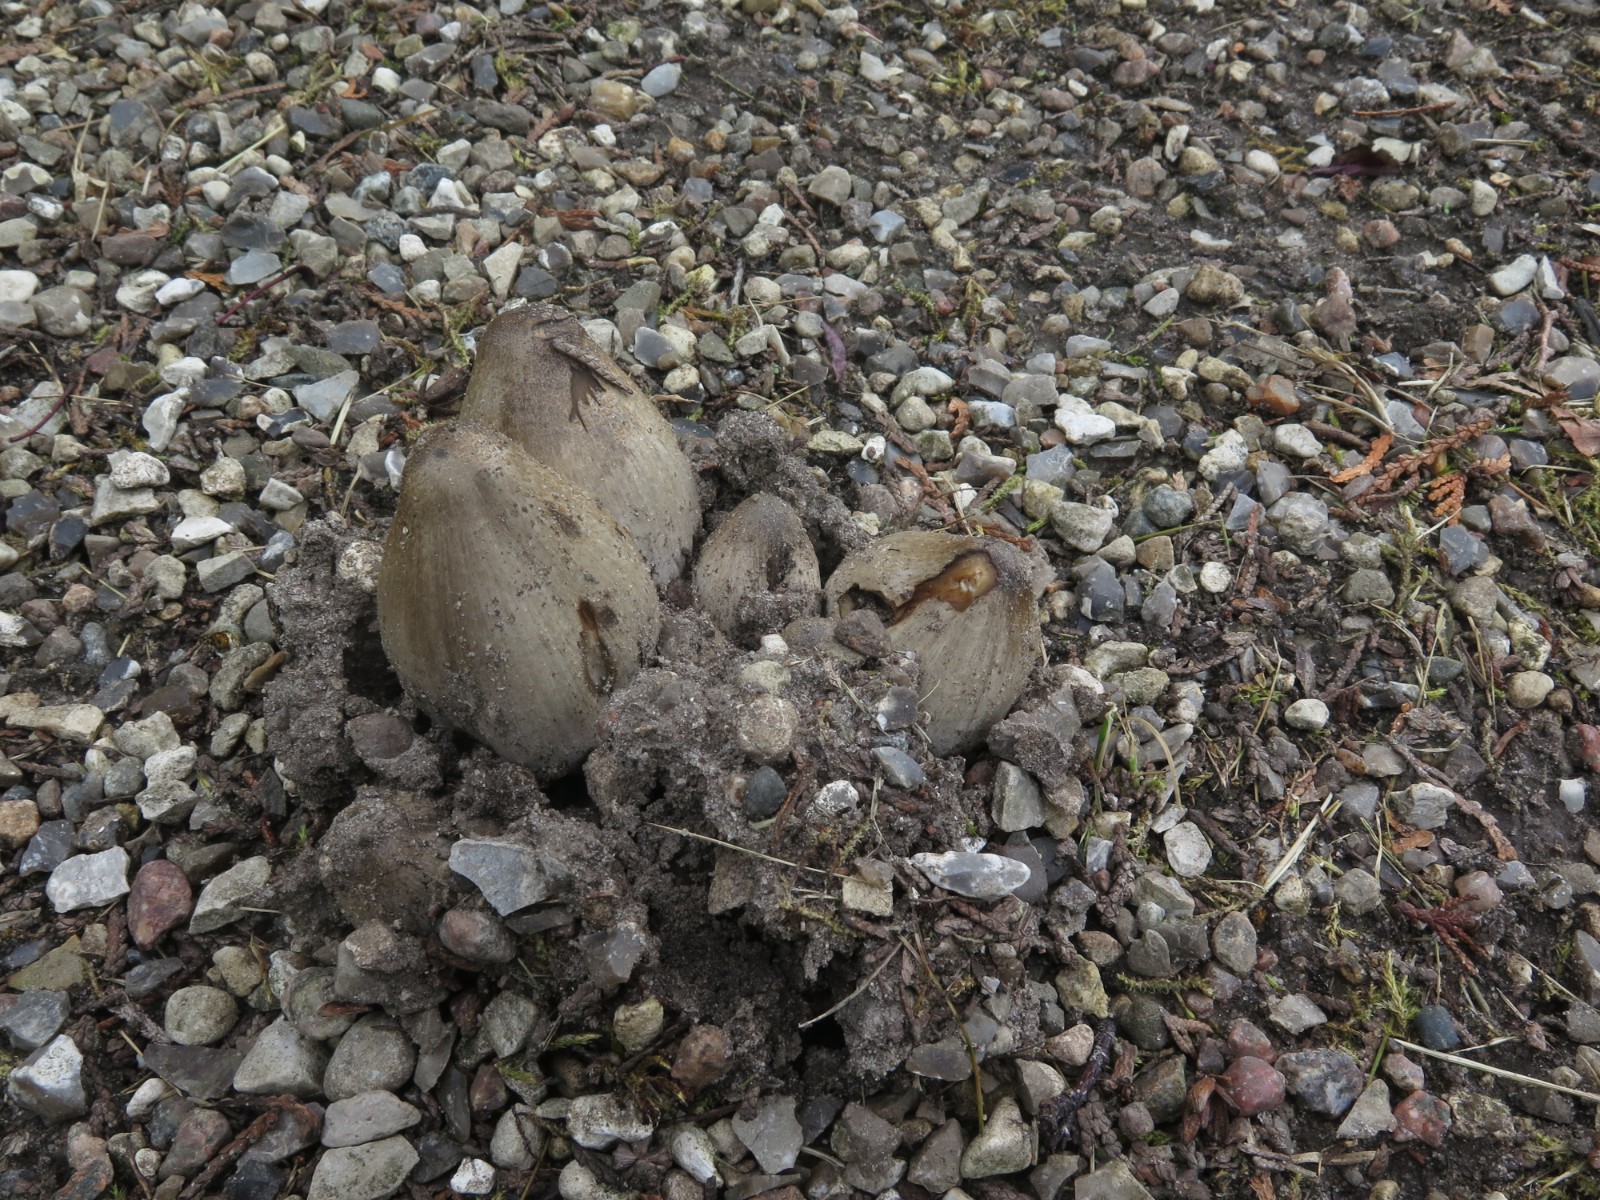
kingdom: Fungi
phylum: Basidiomycota
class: Agaricomycetes
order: Agaricales
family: Psathyrellaceae
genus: Coprinopsis
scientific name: Coprinopsis atramentaria
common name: almindelig blækhat
